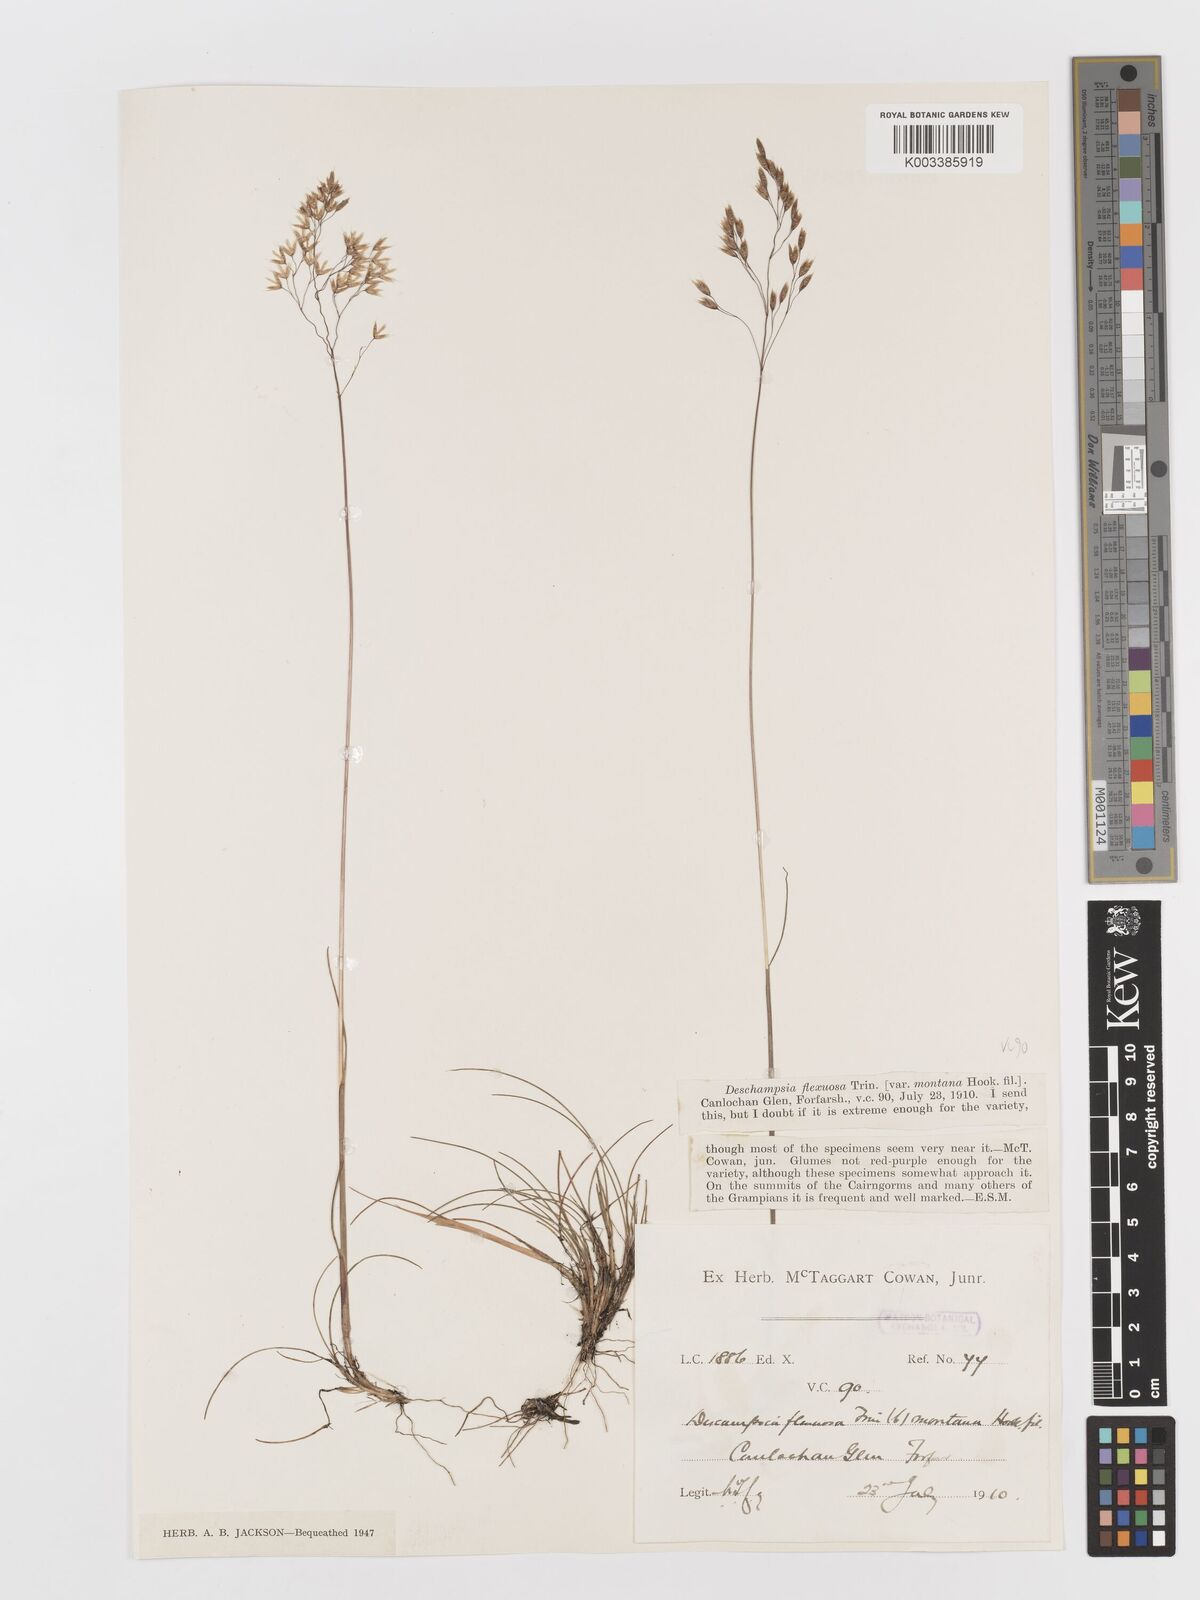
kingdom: Plantae
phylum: Tracheophyta
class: Liliopsida
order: Poales
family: Poaceae
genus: Avenella
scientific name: Avenella flexuosa
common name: Wavy hairgrass
